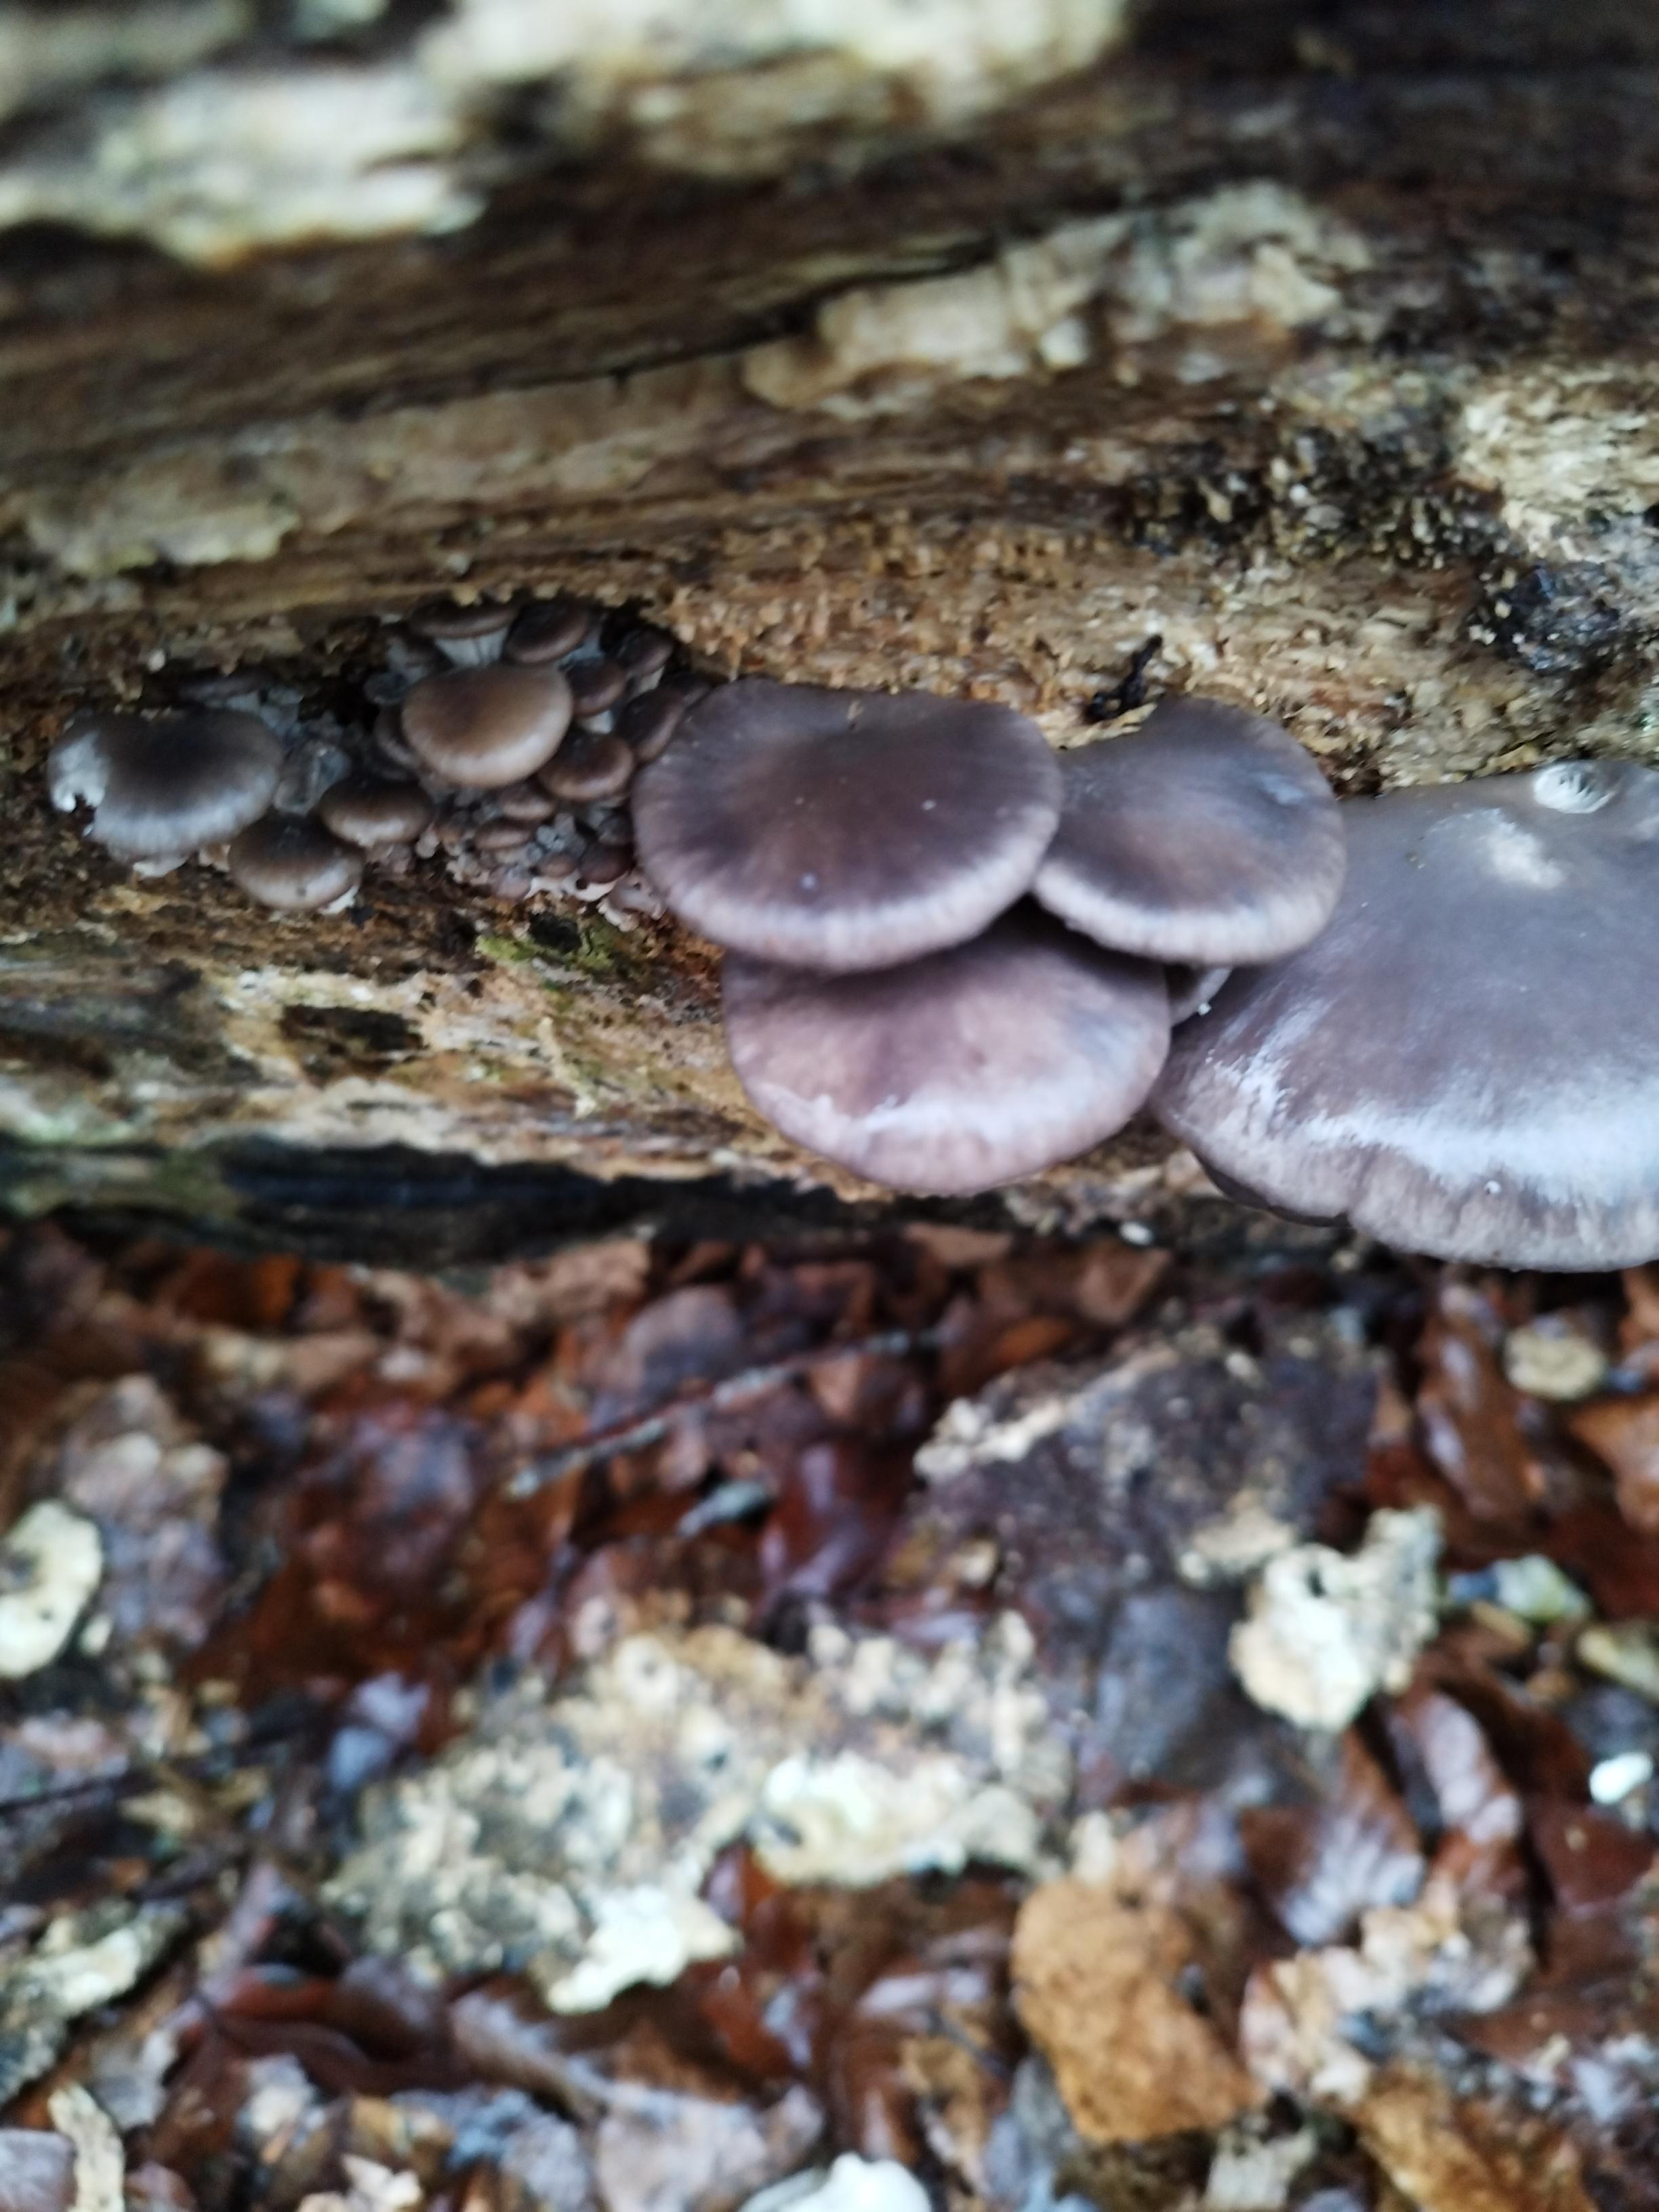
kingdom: Fungi
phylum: Basidiomycota
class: Agaricomycetes
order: Agaricales
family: Pleurotaceae
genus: Pleurotus
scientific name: Pleurotus ostreatus
